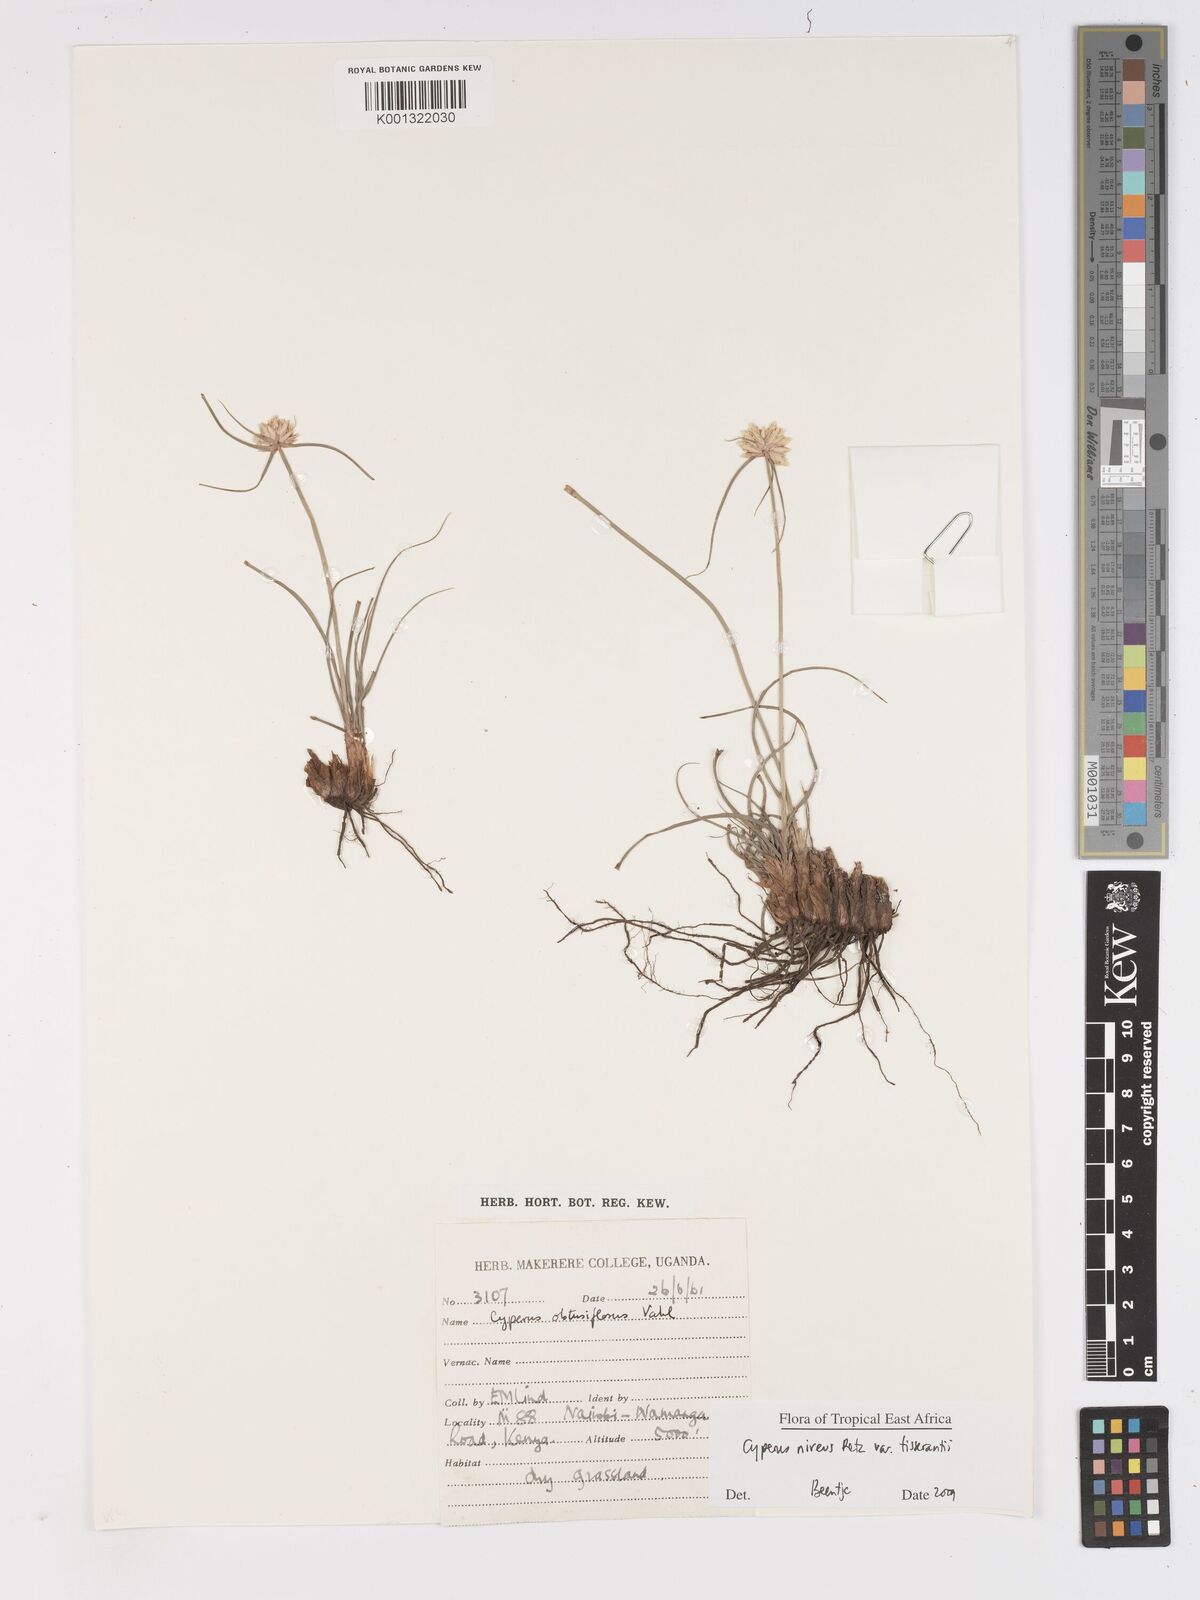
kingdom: Plantae
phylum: Tracheophyta
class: Liliopsida
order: Poales
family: Cyperaceae
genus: Cyperus
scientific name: Cyperus niveus
